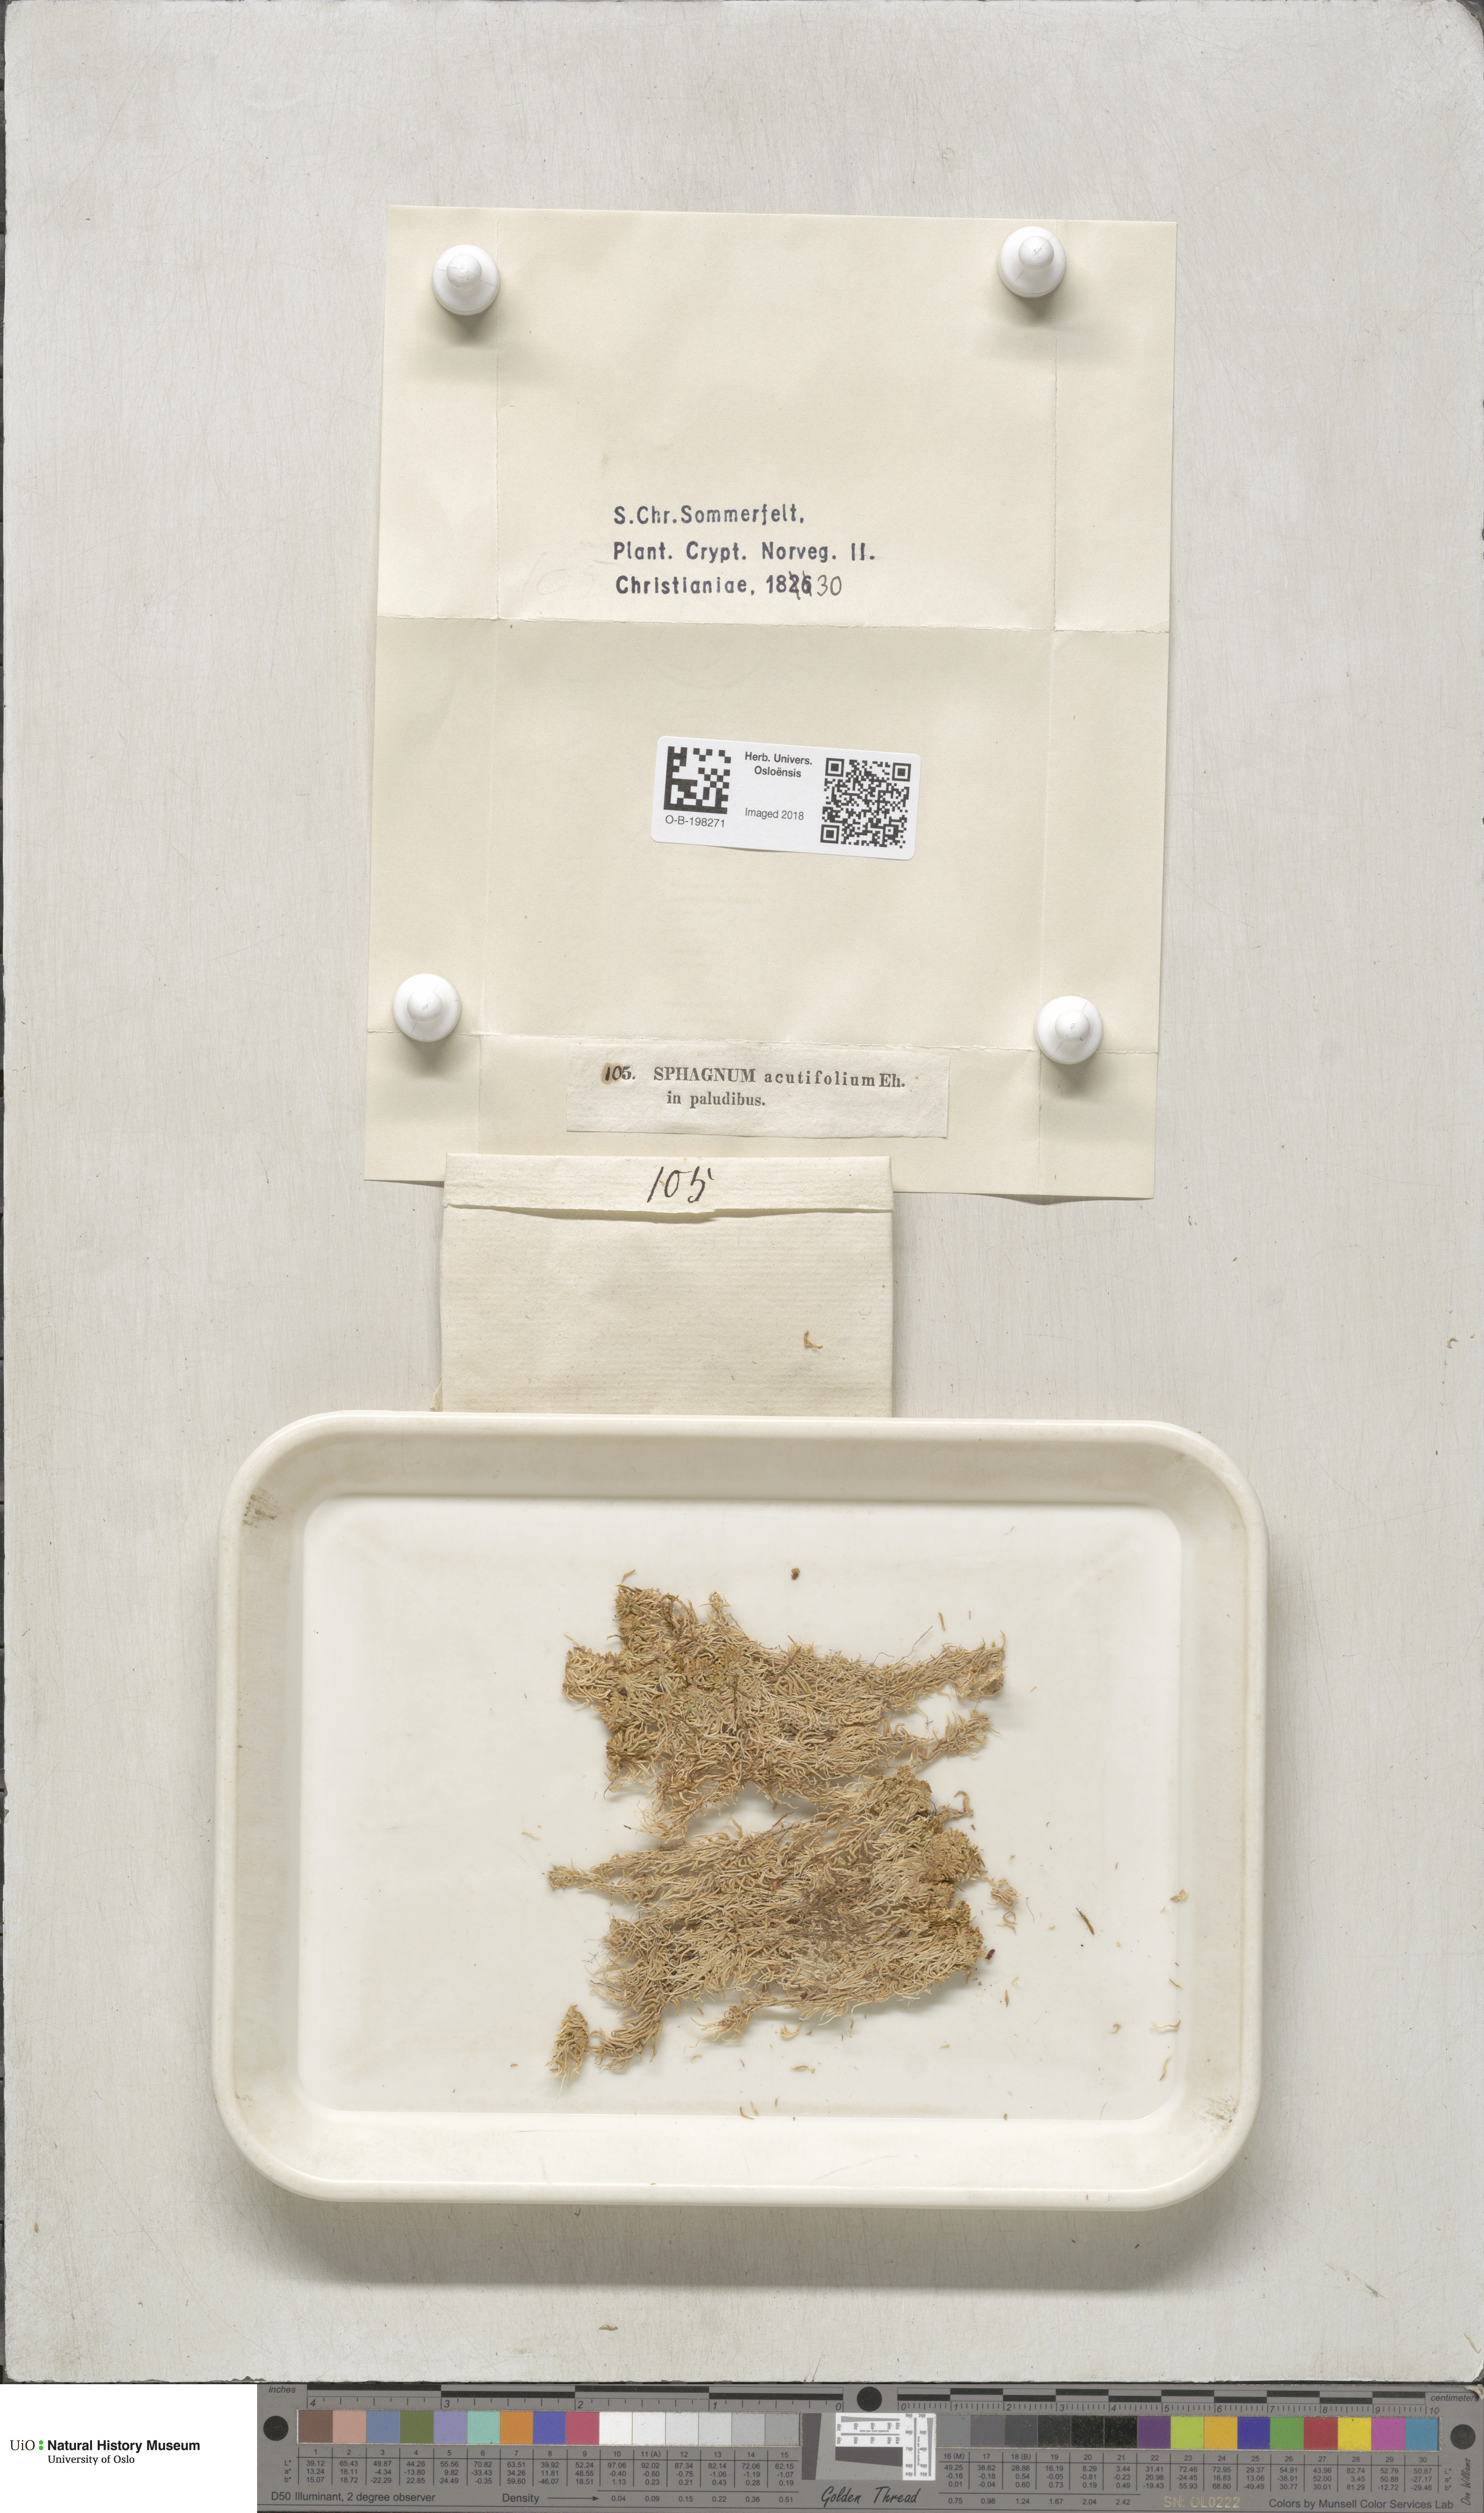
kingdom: Plantae
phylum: Bryophyta
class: Sphagnopsida
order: Sphagnales
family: Sphagnaceae
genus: Sphagnum
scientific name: Sphagnum capillifolium
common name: Small red peat moss
